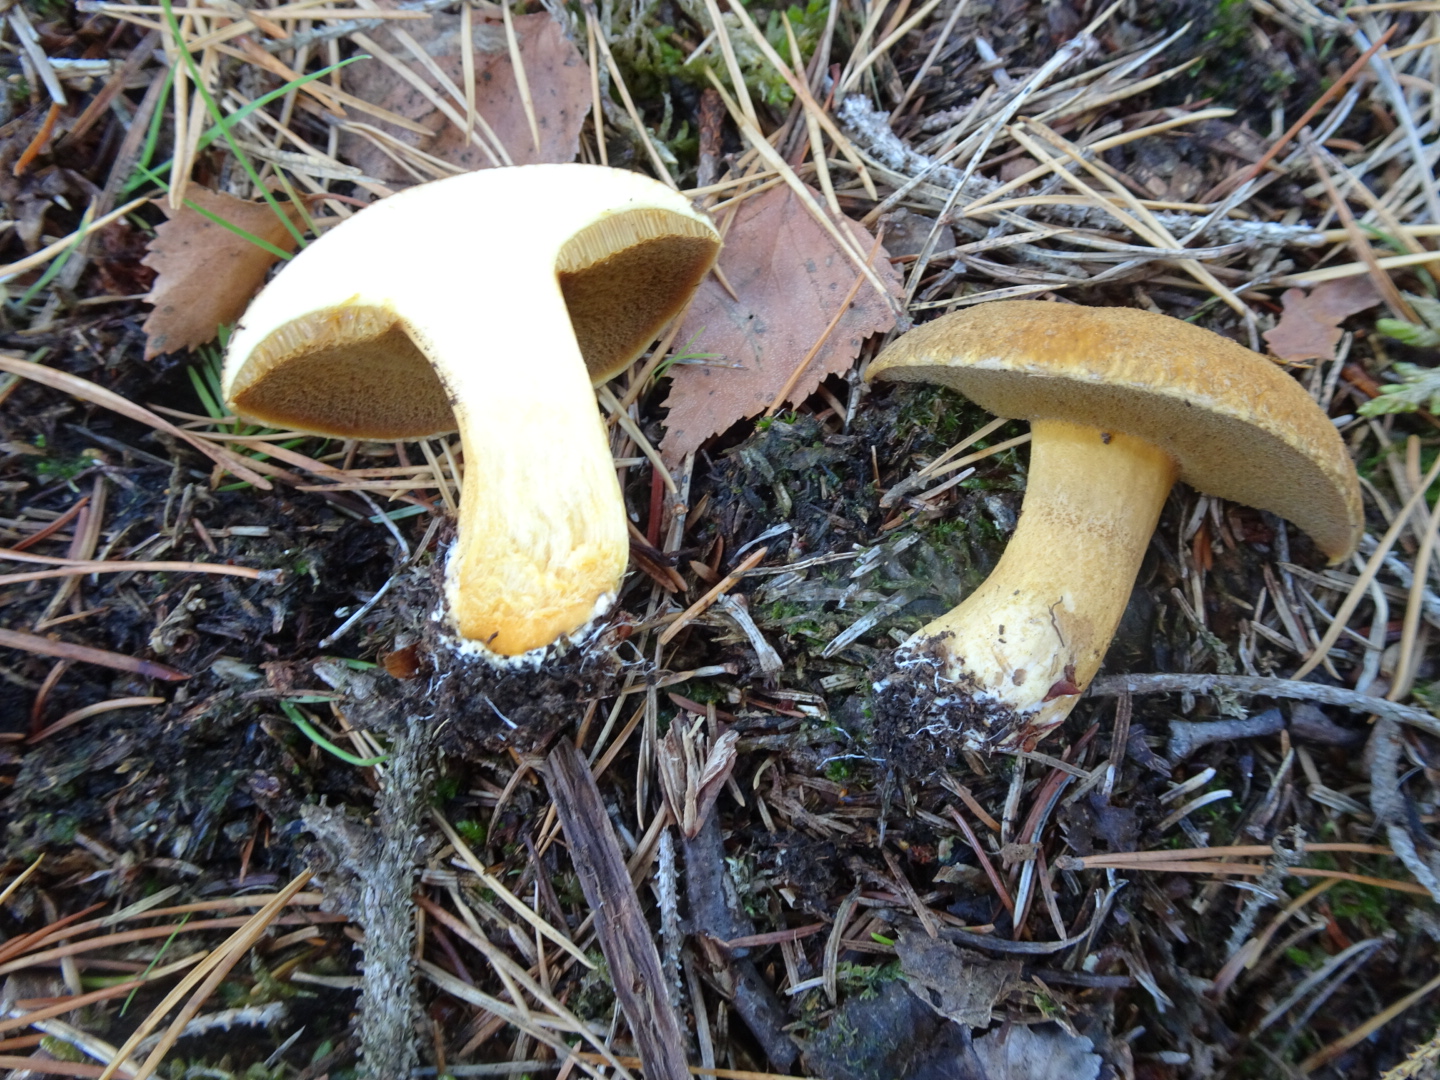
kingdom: Fungi
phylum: Basidiomycota
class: Agaricomycetes
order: Boletales
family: Suillaceae
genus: Suillus
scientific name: Suillus variegatus
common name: broget slimrørhat
